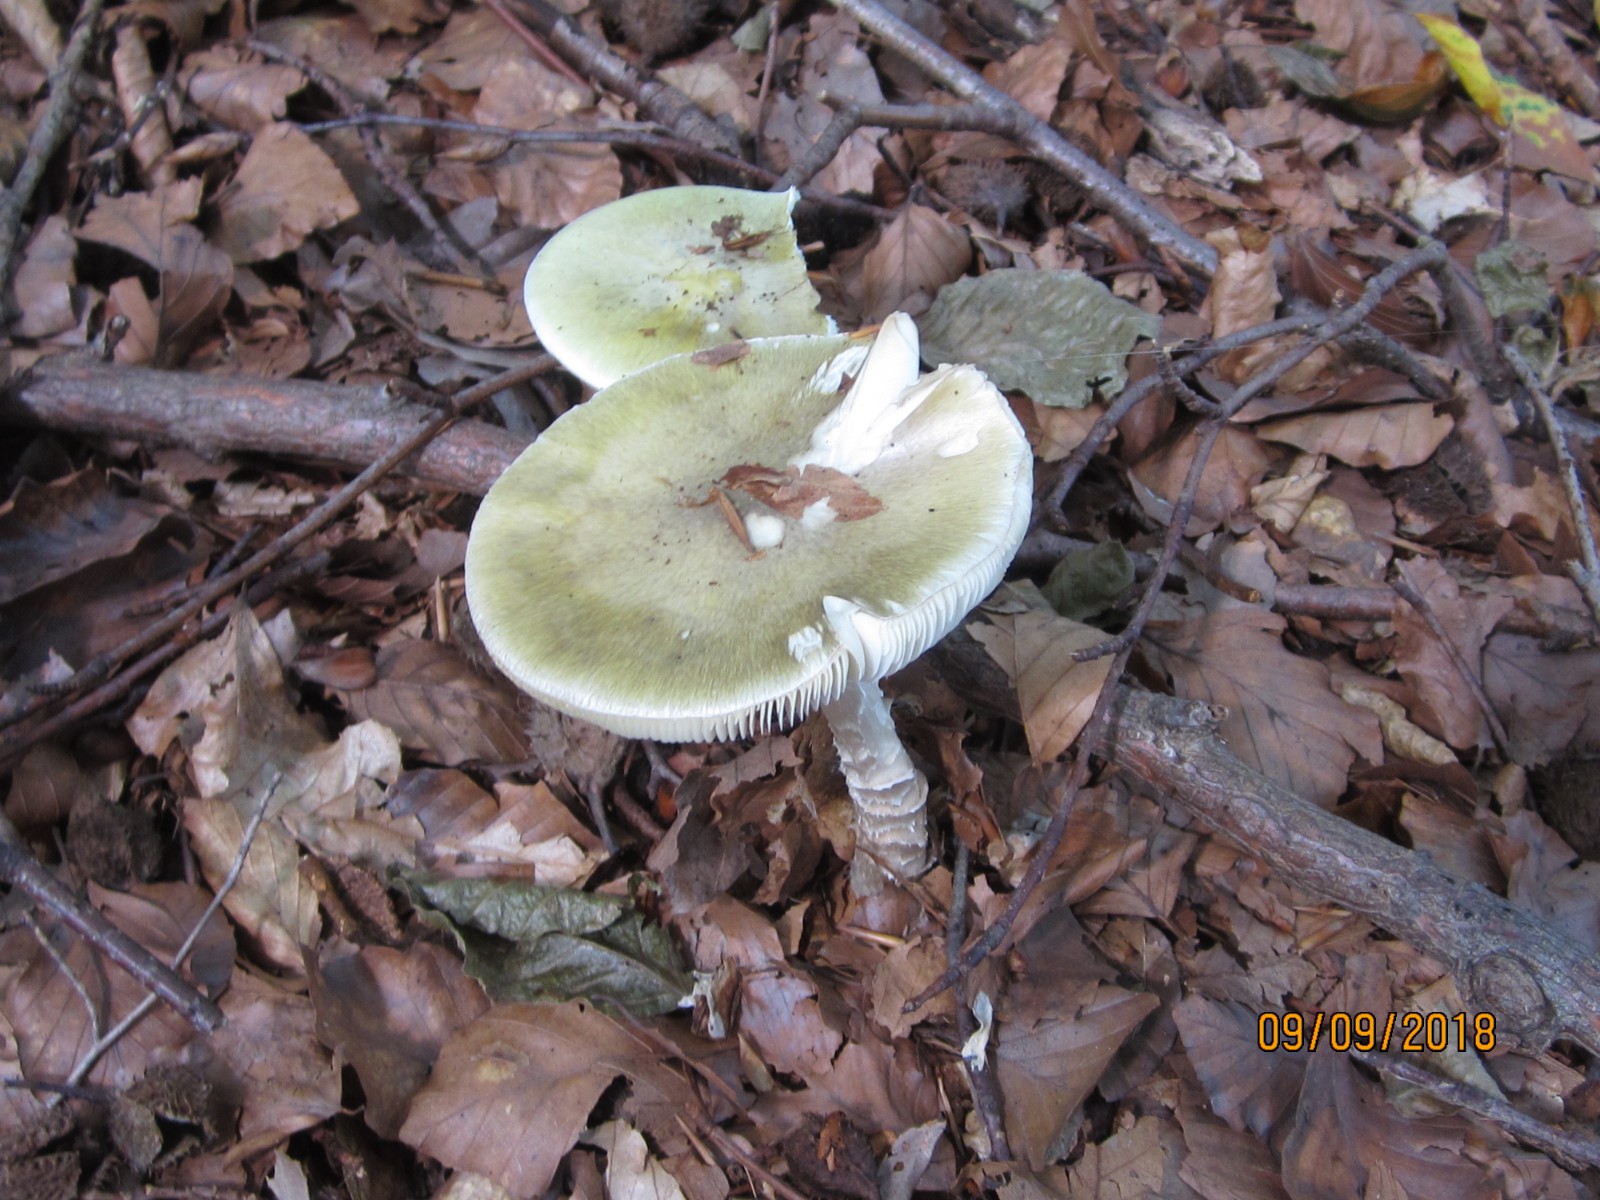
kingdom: Fungi
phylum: Basidiomycota
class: Agaricomycetes
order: Agaricales
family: Amanitaceae
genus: Amanita
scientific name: Amanita phalloides
